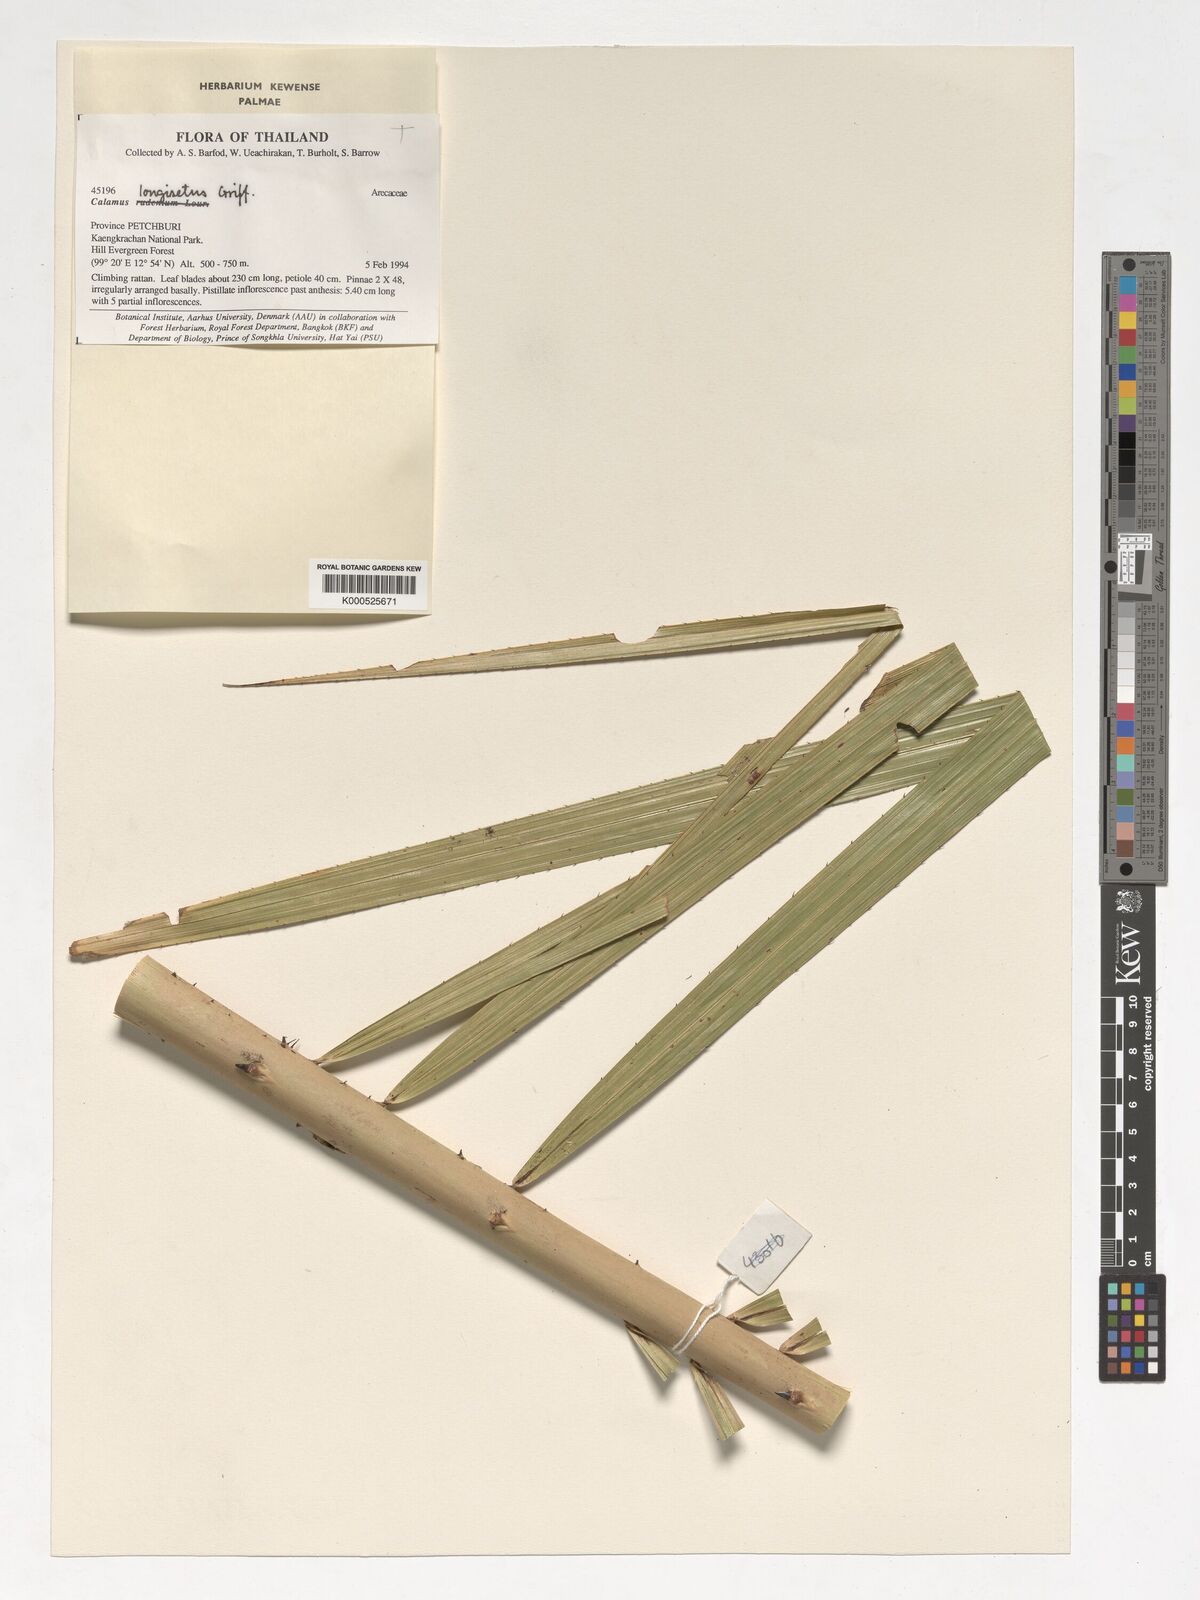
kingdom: Plantae
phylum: Tracheophyta
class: Liliopsida
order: Arecales
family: Arecaceae
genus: Calamus
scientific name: Calamus longisetus
